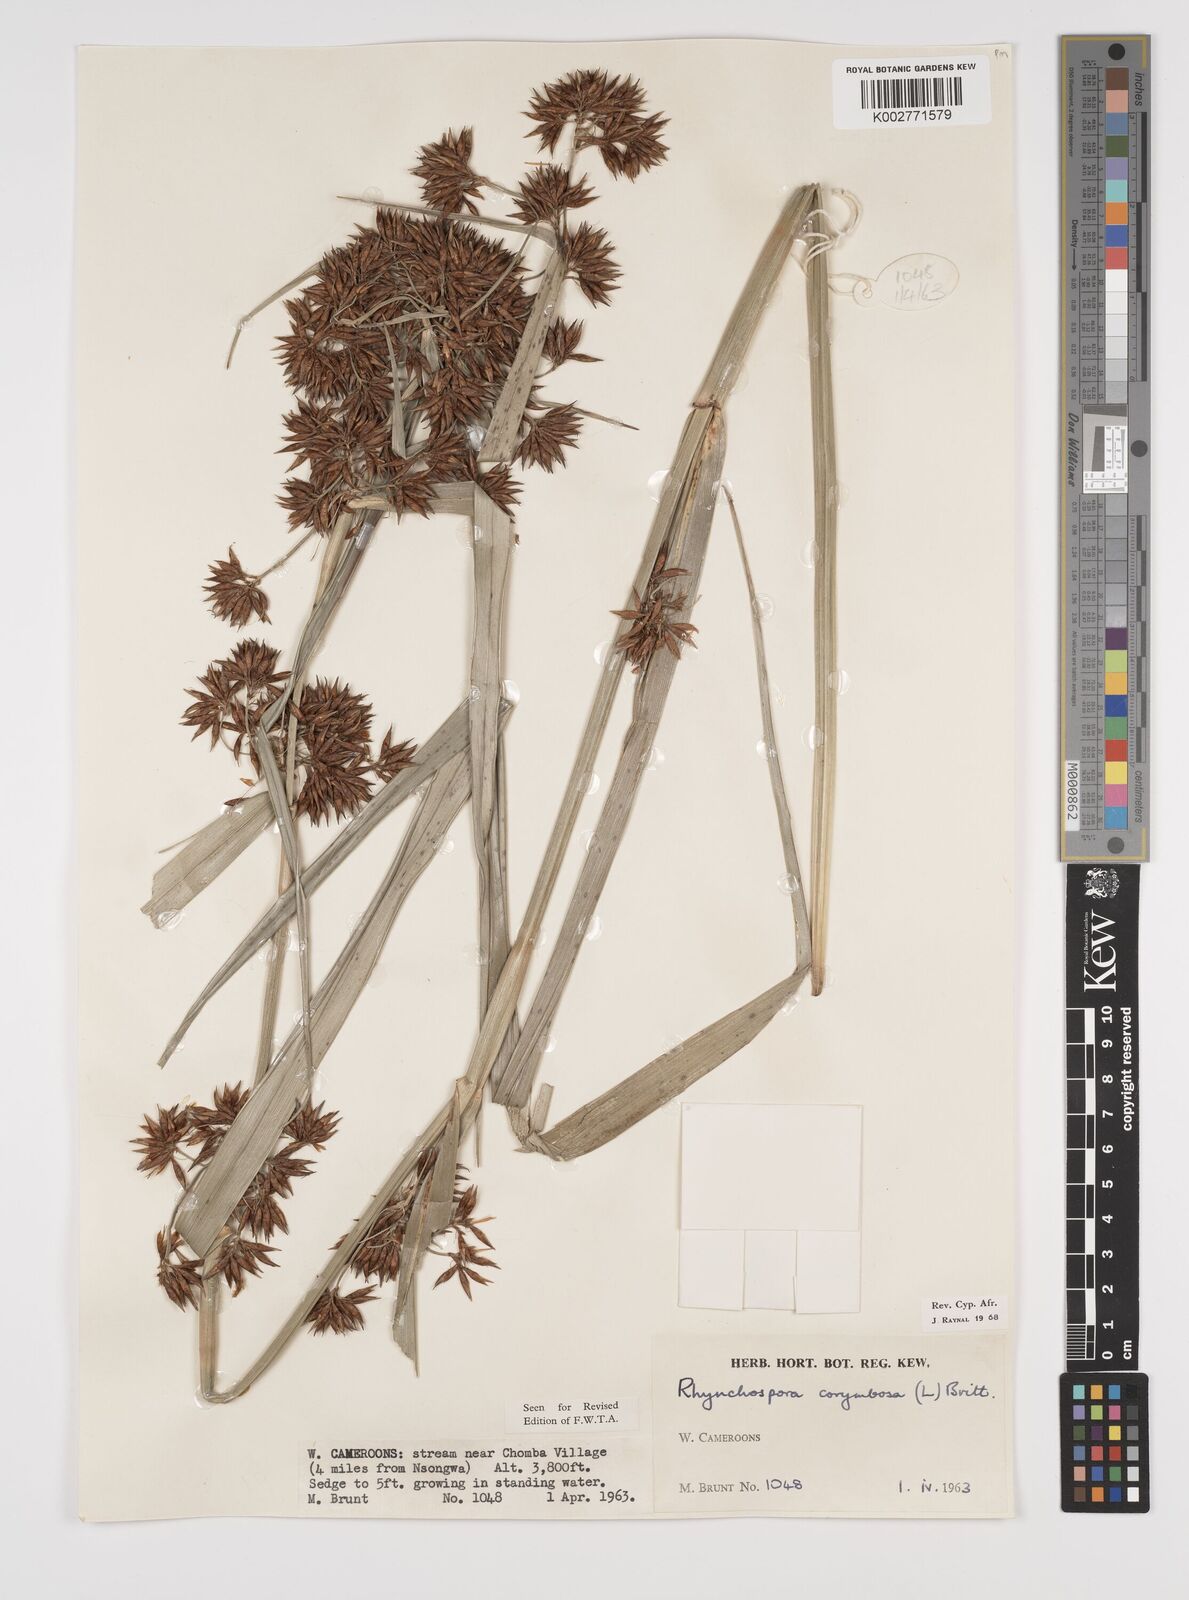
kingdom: Plantae
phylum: Tracheophyta
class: Liliopsida
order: Poales
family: Cyperaceae
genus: Rhynchospora
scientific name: Rhynchospora corymbosa
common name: Golden beak sedge
